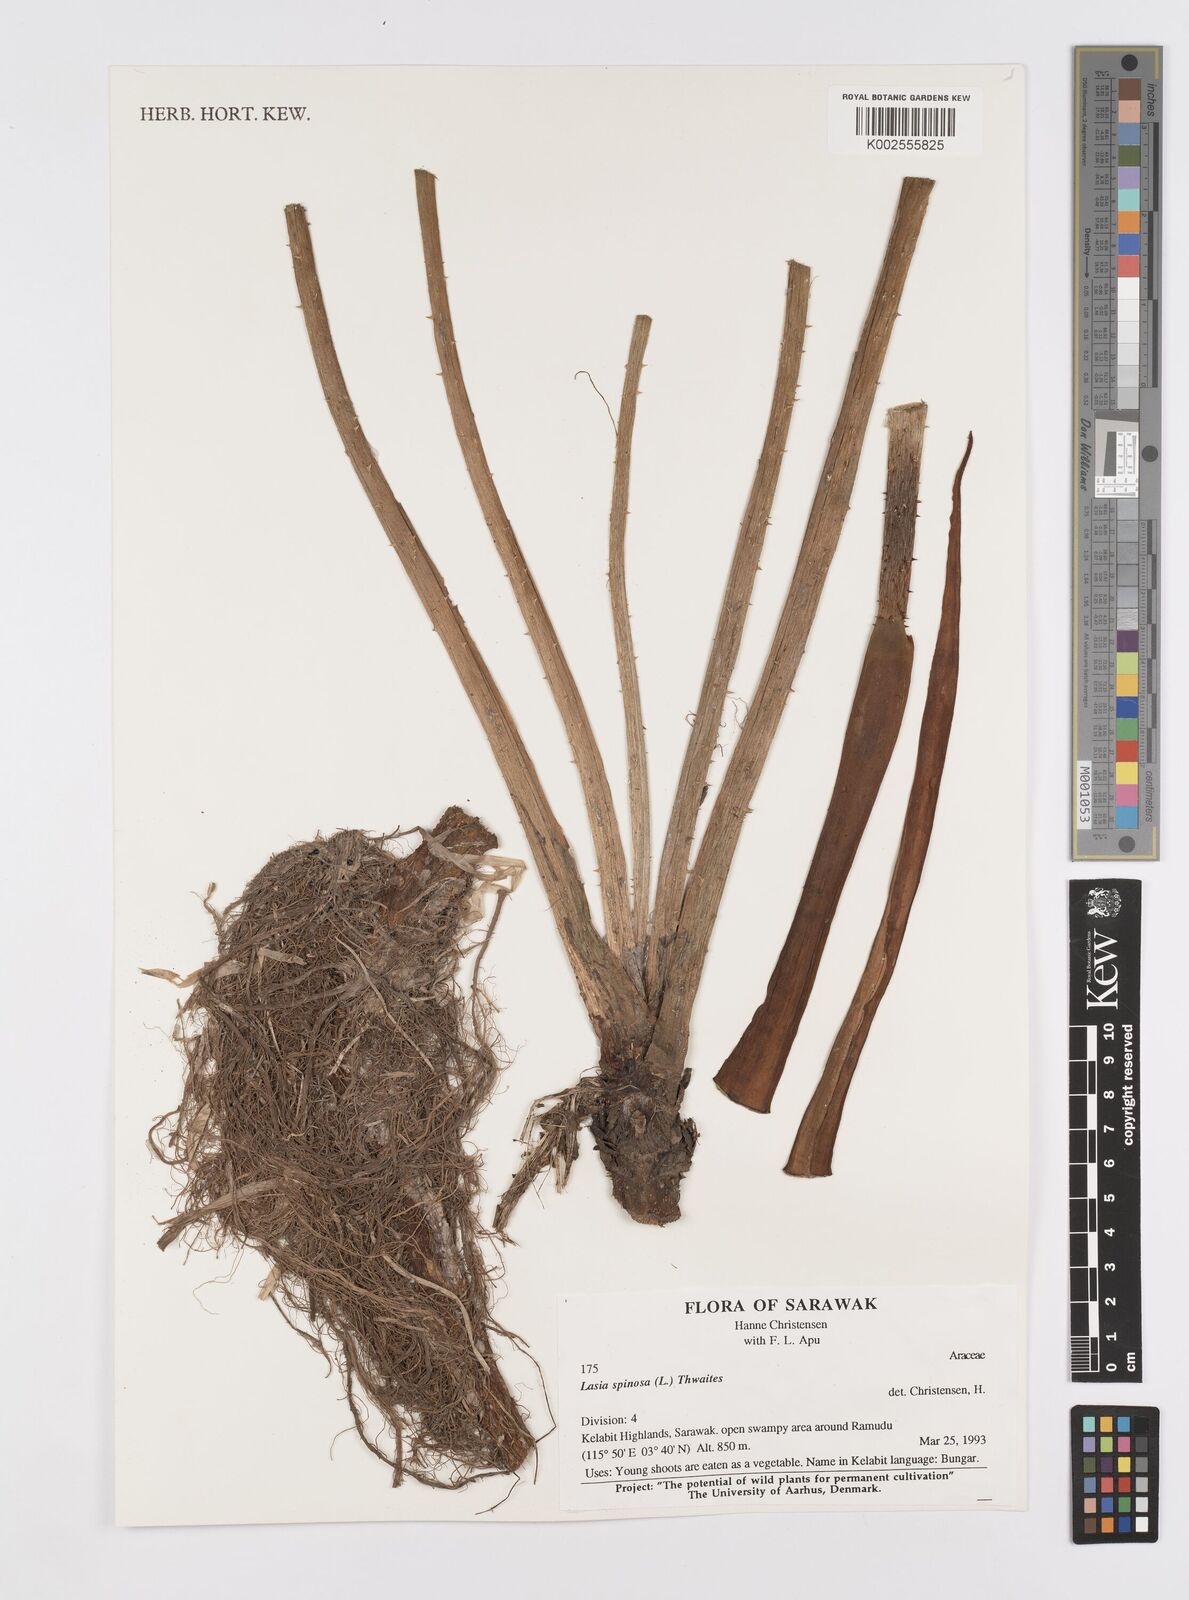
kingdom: Plantae
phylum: Tracheophyta
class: Liliopsida
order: Alismatales
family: Araceae
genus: Lasia
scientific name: Lasia spinosa
